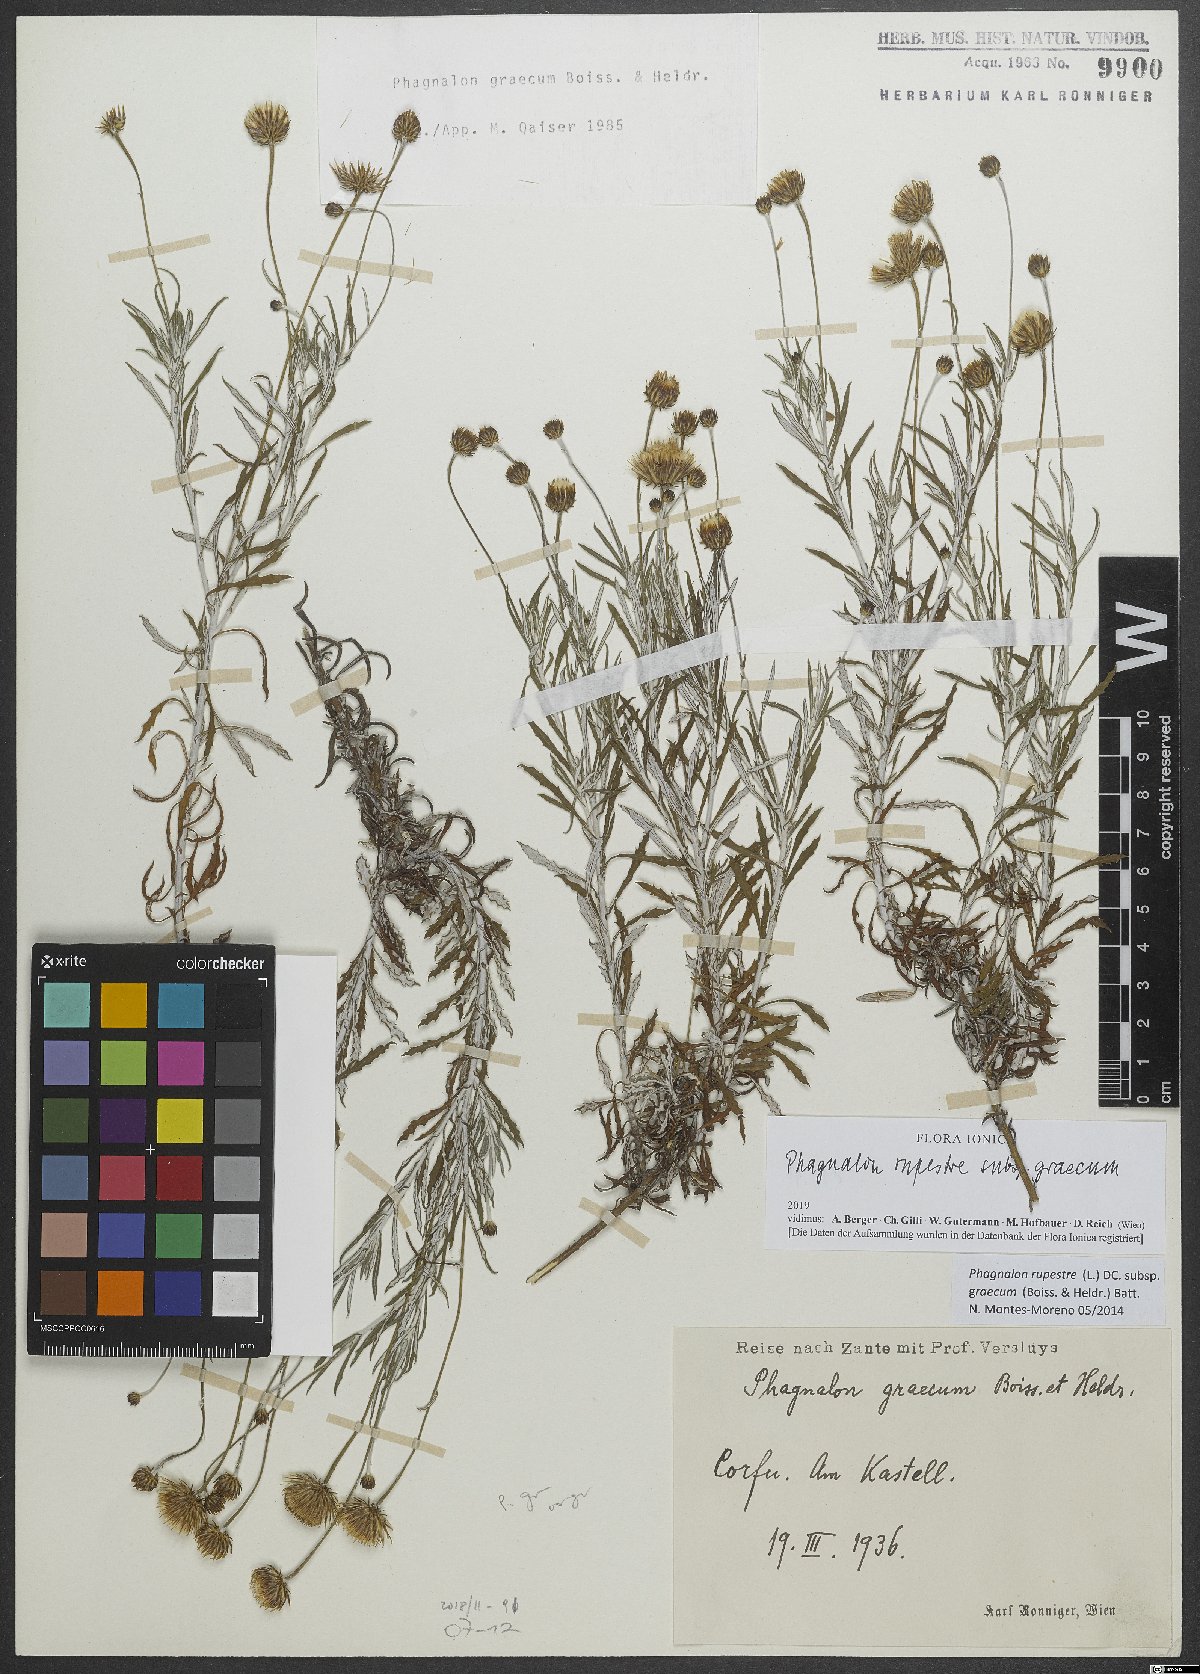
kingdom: Plantae
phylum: Tracheophyta
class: Magnoliopsida
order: Asterales
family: Asteraceae
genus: Phagnalon
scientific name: Phagnalon graecum
